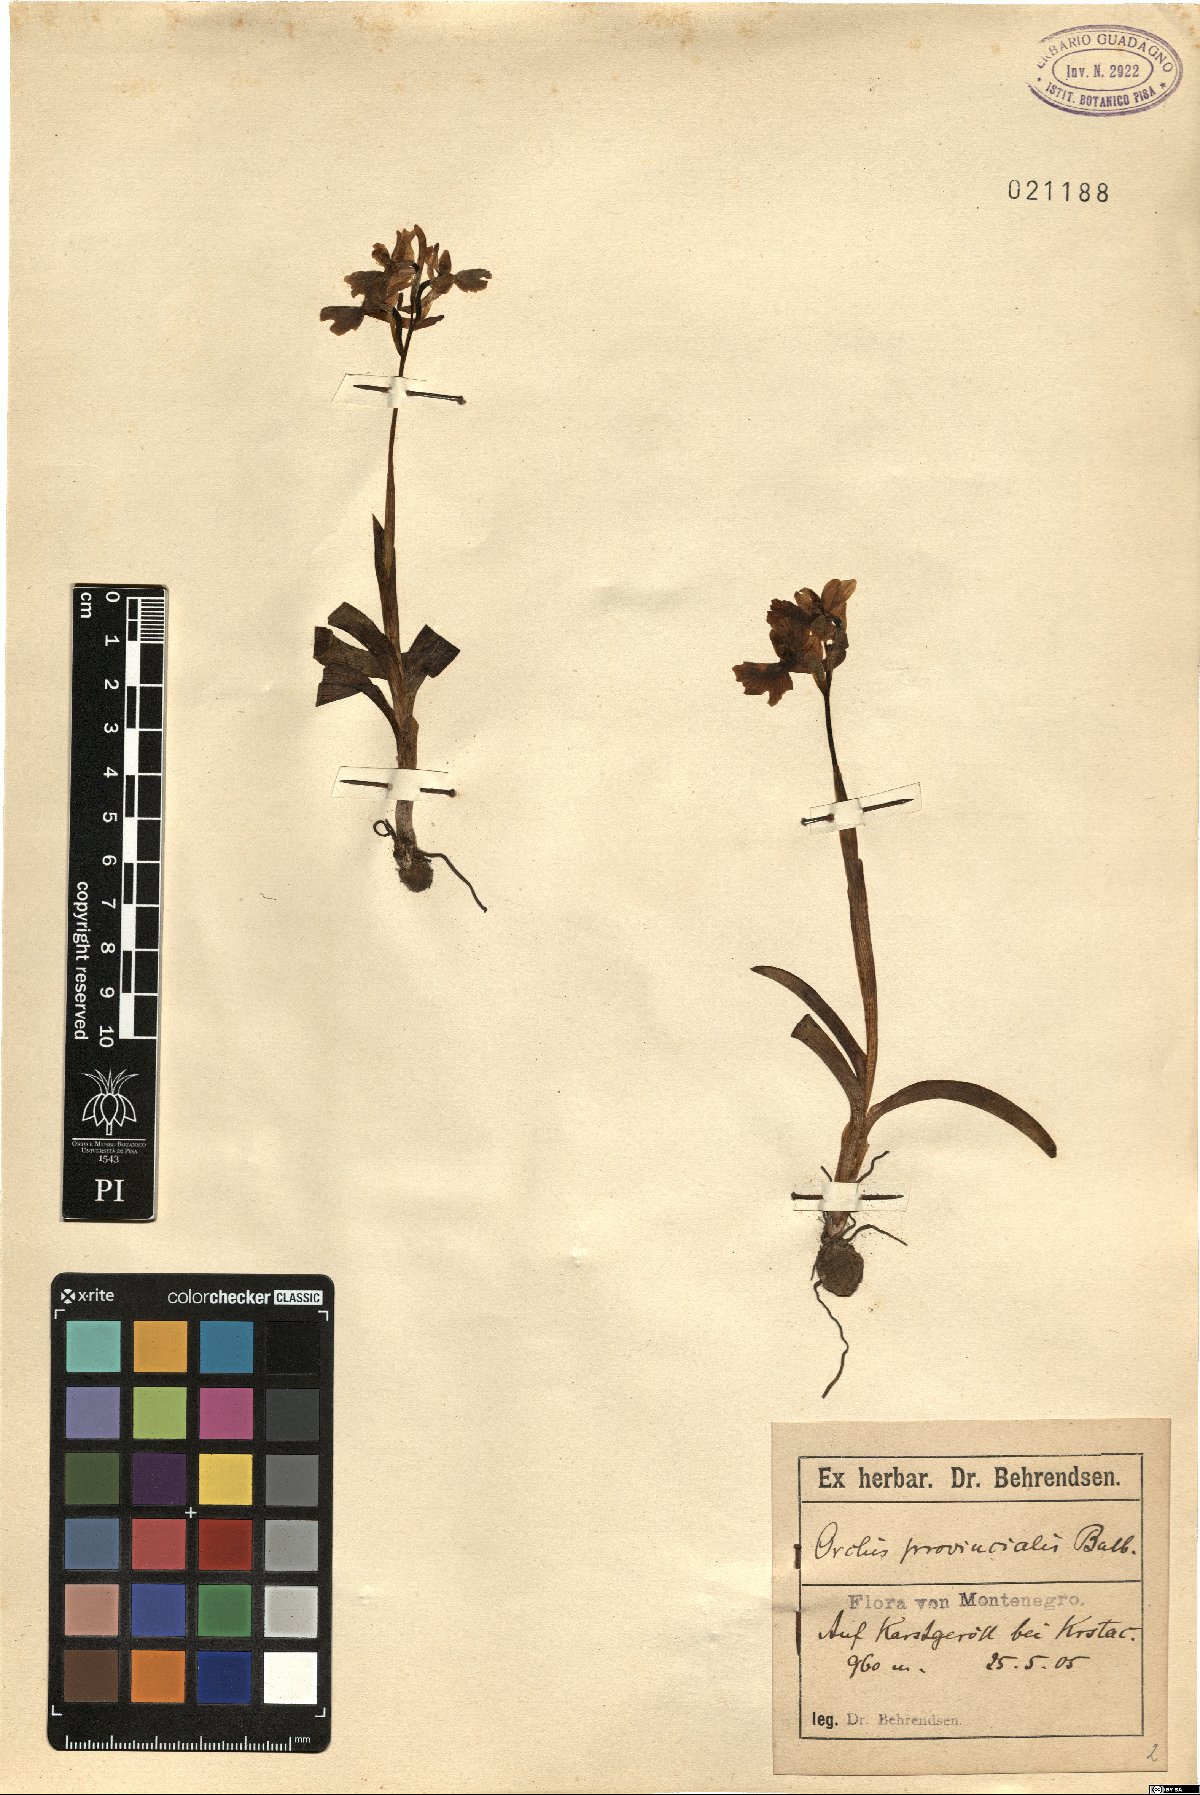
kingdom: Plantae
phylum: Tracheophyta
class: Liliopsida
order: Asparagales
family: Orchidaceae
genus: Orchis
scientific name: Orchis provincialis
